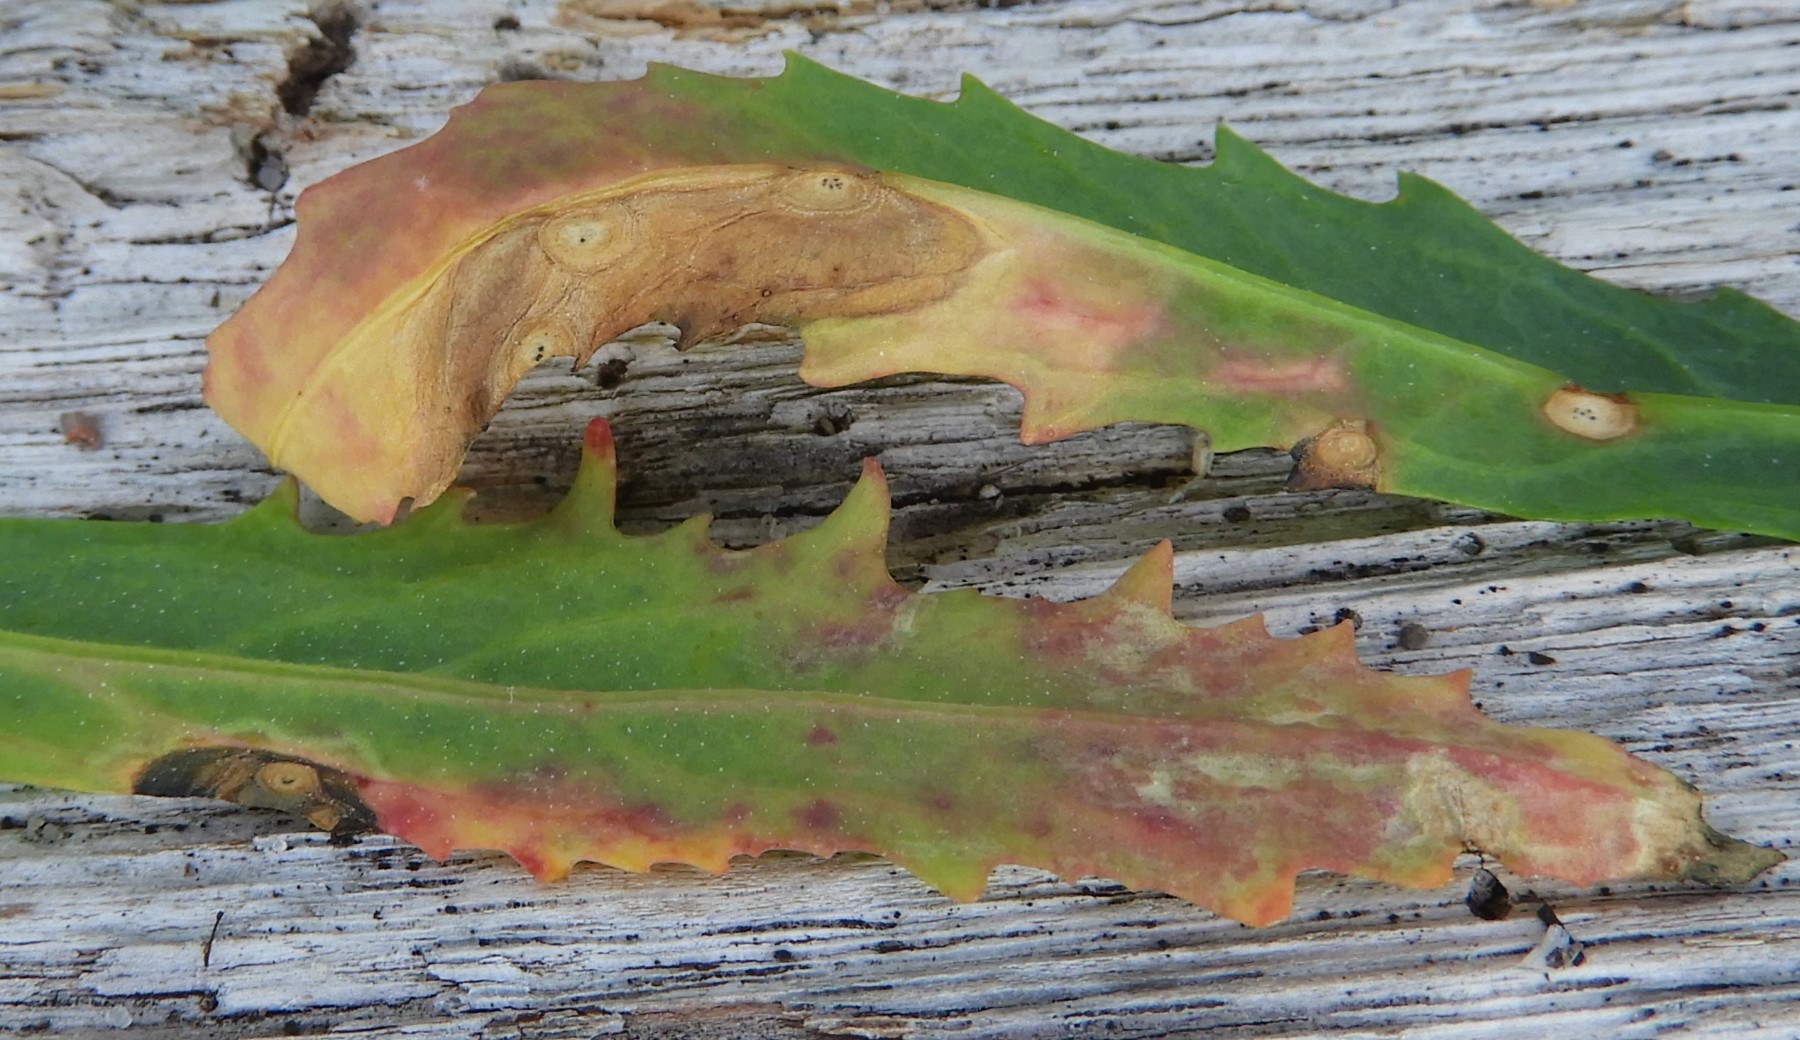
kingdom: Fungi
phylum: Ascomycota
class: Dothideomycetes
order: Pleosporales
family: Didymellaceae
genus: Phoma
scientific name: Phoma
